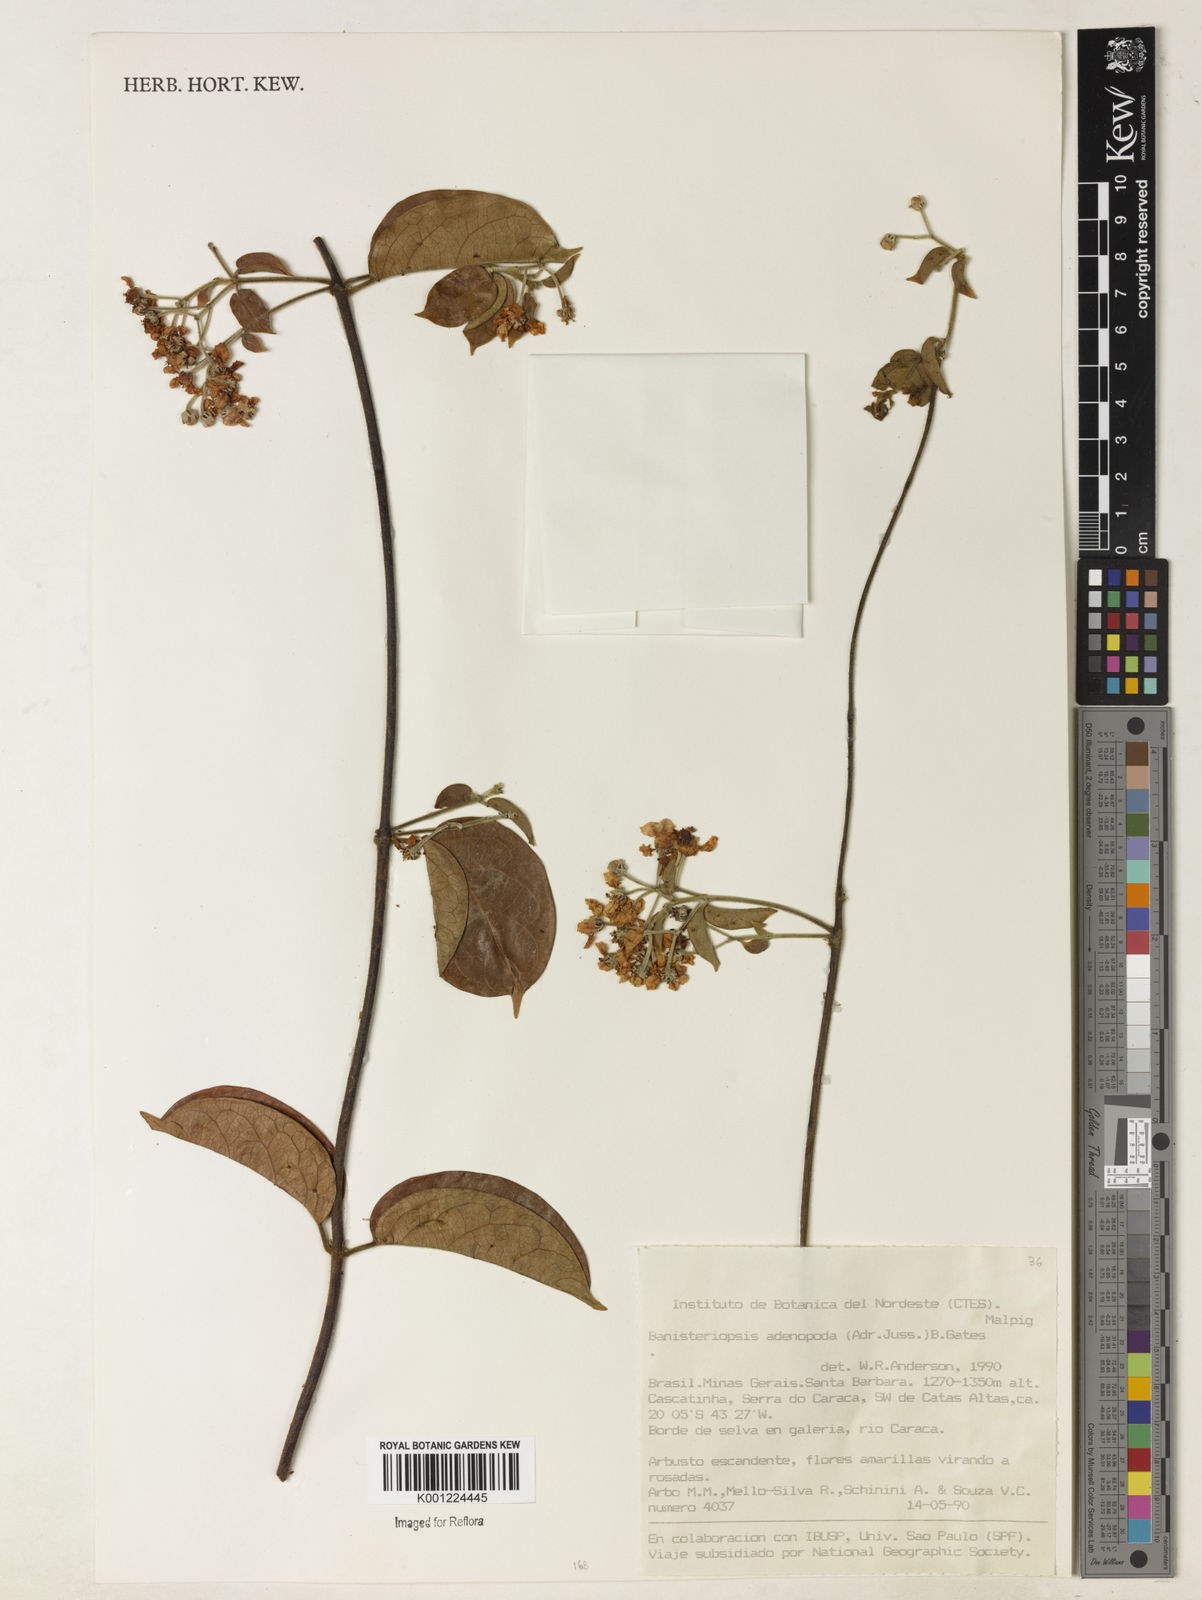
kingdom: Plantae
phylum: Tracheophyta
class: Magnoliopsida
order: Malpighiales
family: Malpighiaceae
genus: Banisteriopsis
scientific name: Banisteriopsis adenopoda
